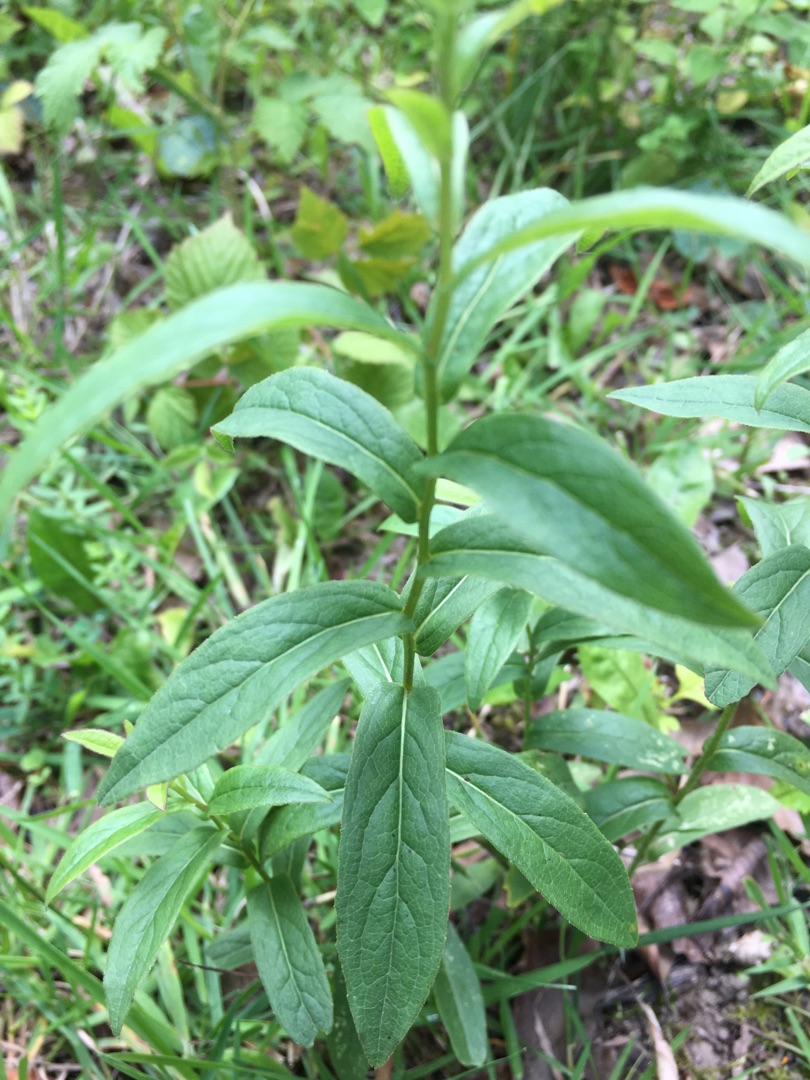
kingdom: Plantae
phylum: Tracheophyta
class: Magnoliopsida
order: Asterales
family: Asteraceae
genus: Pentanema
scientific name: Pentanema salicinum
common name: Pile-alant
